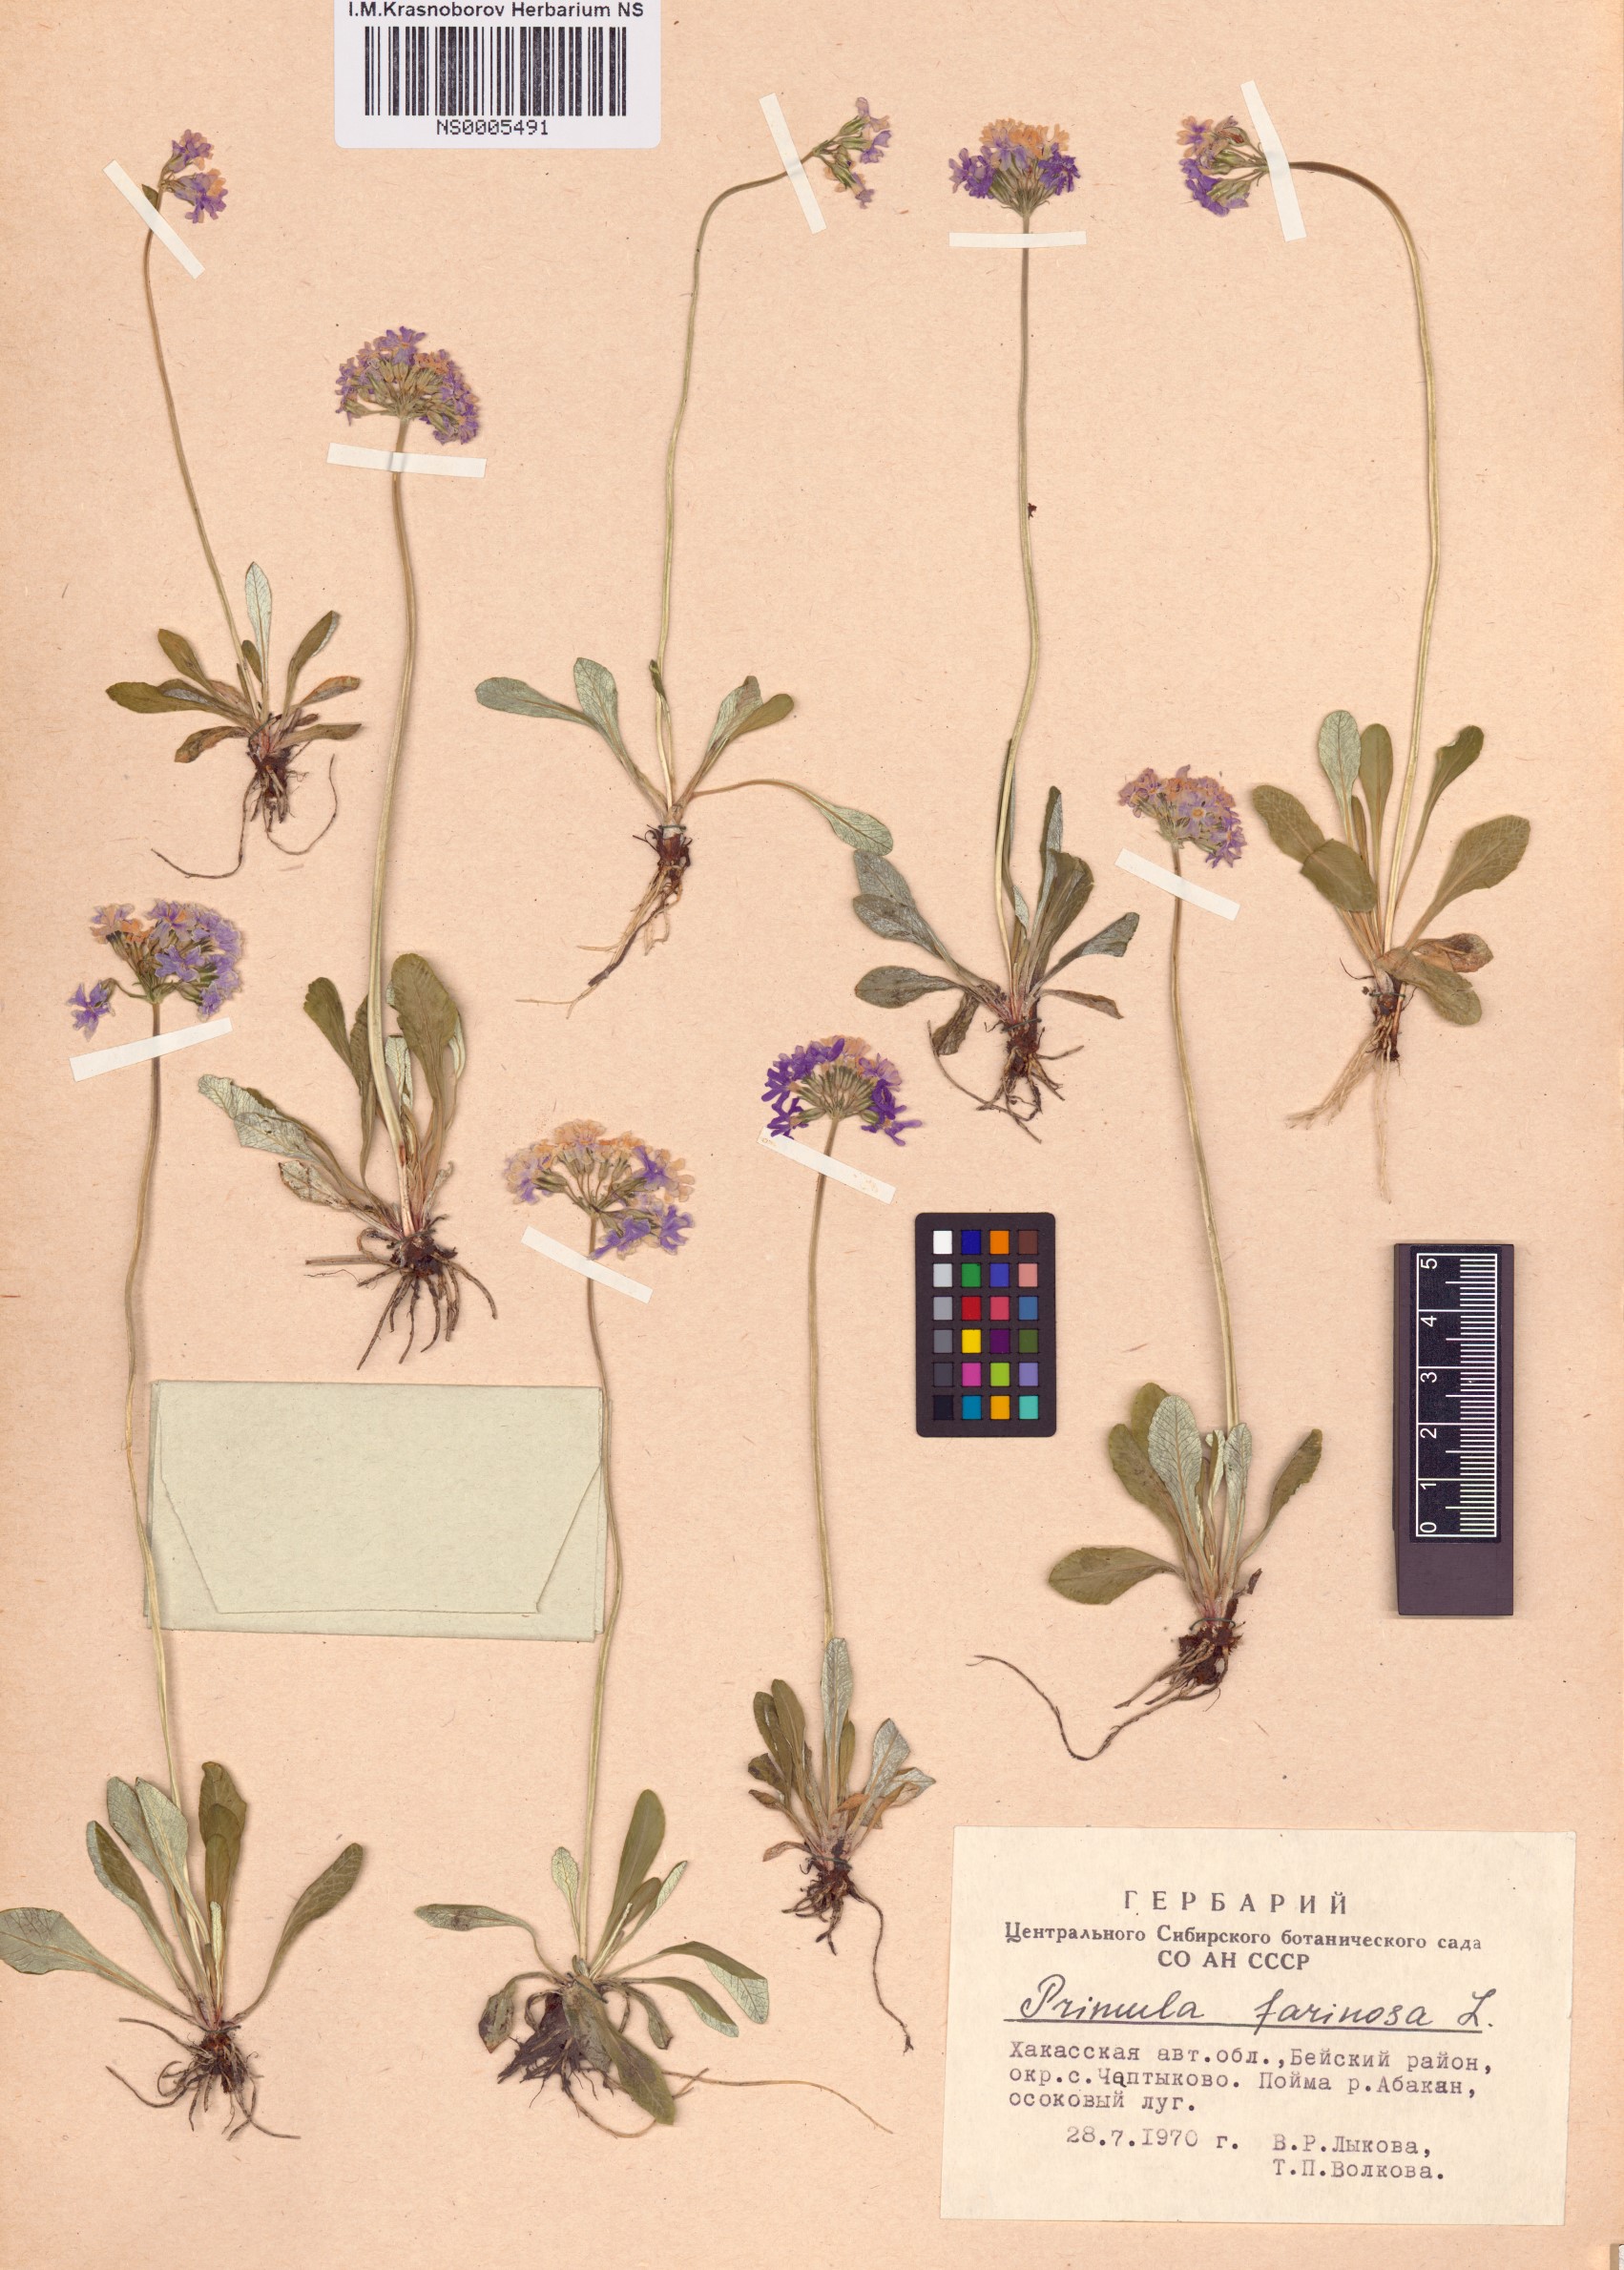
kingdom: Plantae
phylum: Tracheophyta
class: Magnoliopsida
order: Ericales
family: Primulaceae
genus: Primula
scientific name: Primula farinosa
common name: Bird's-eye primrose
